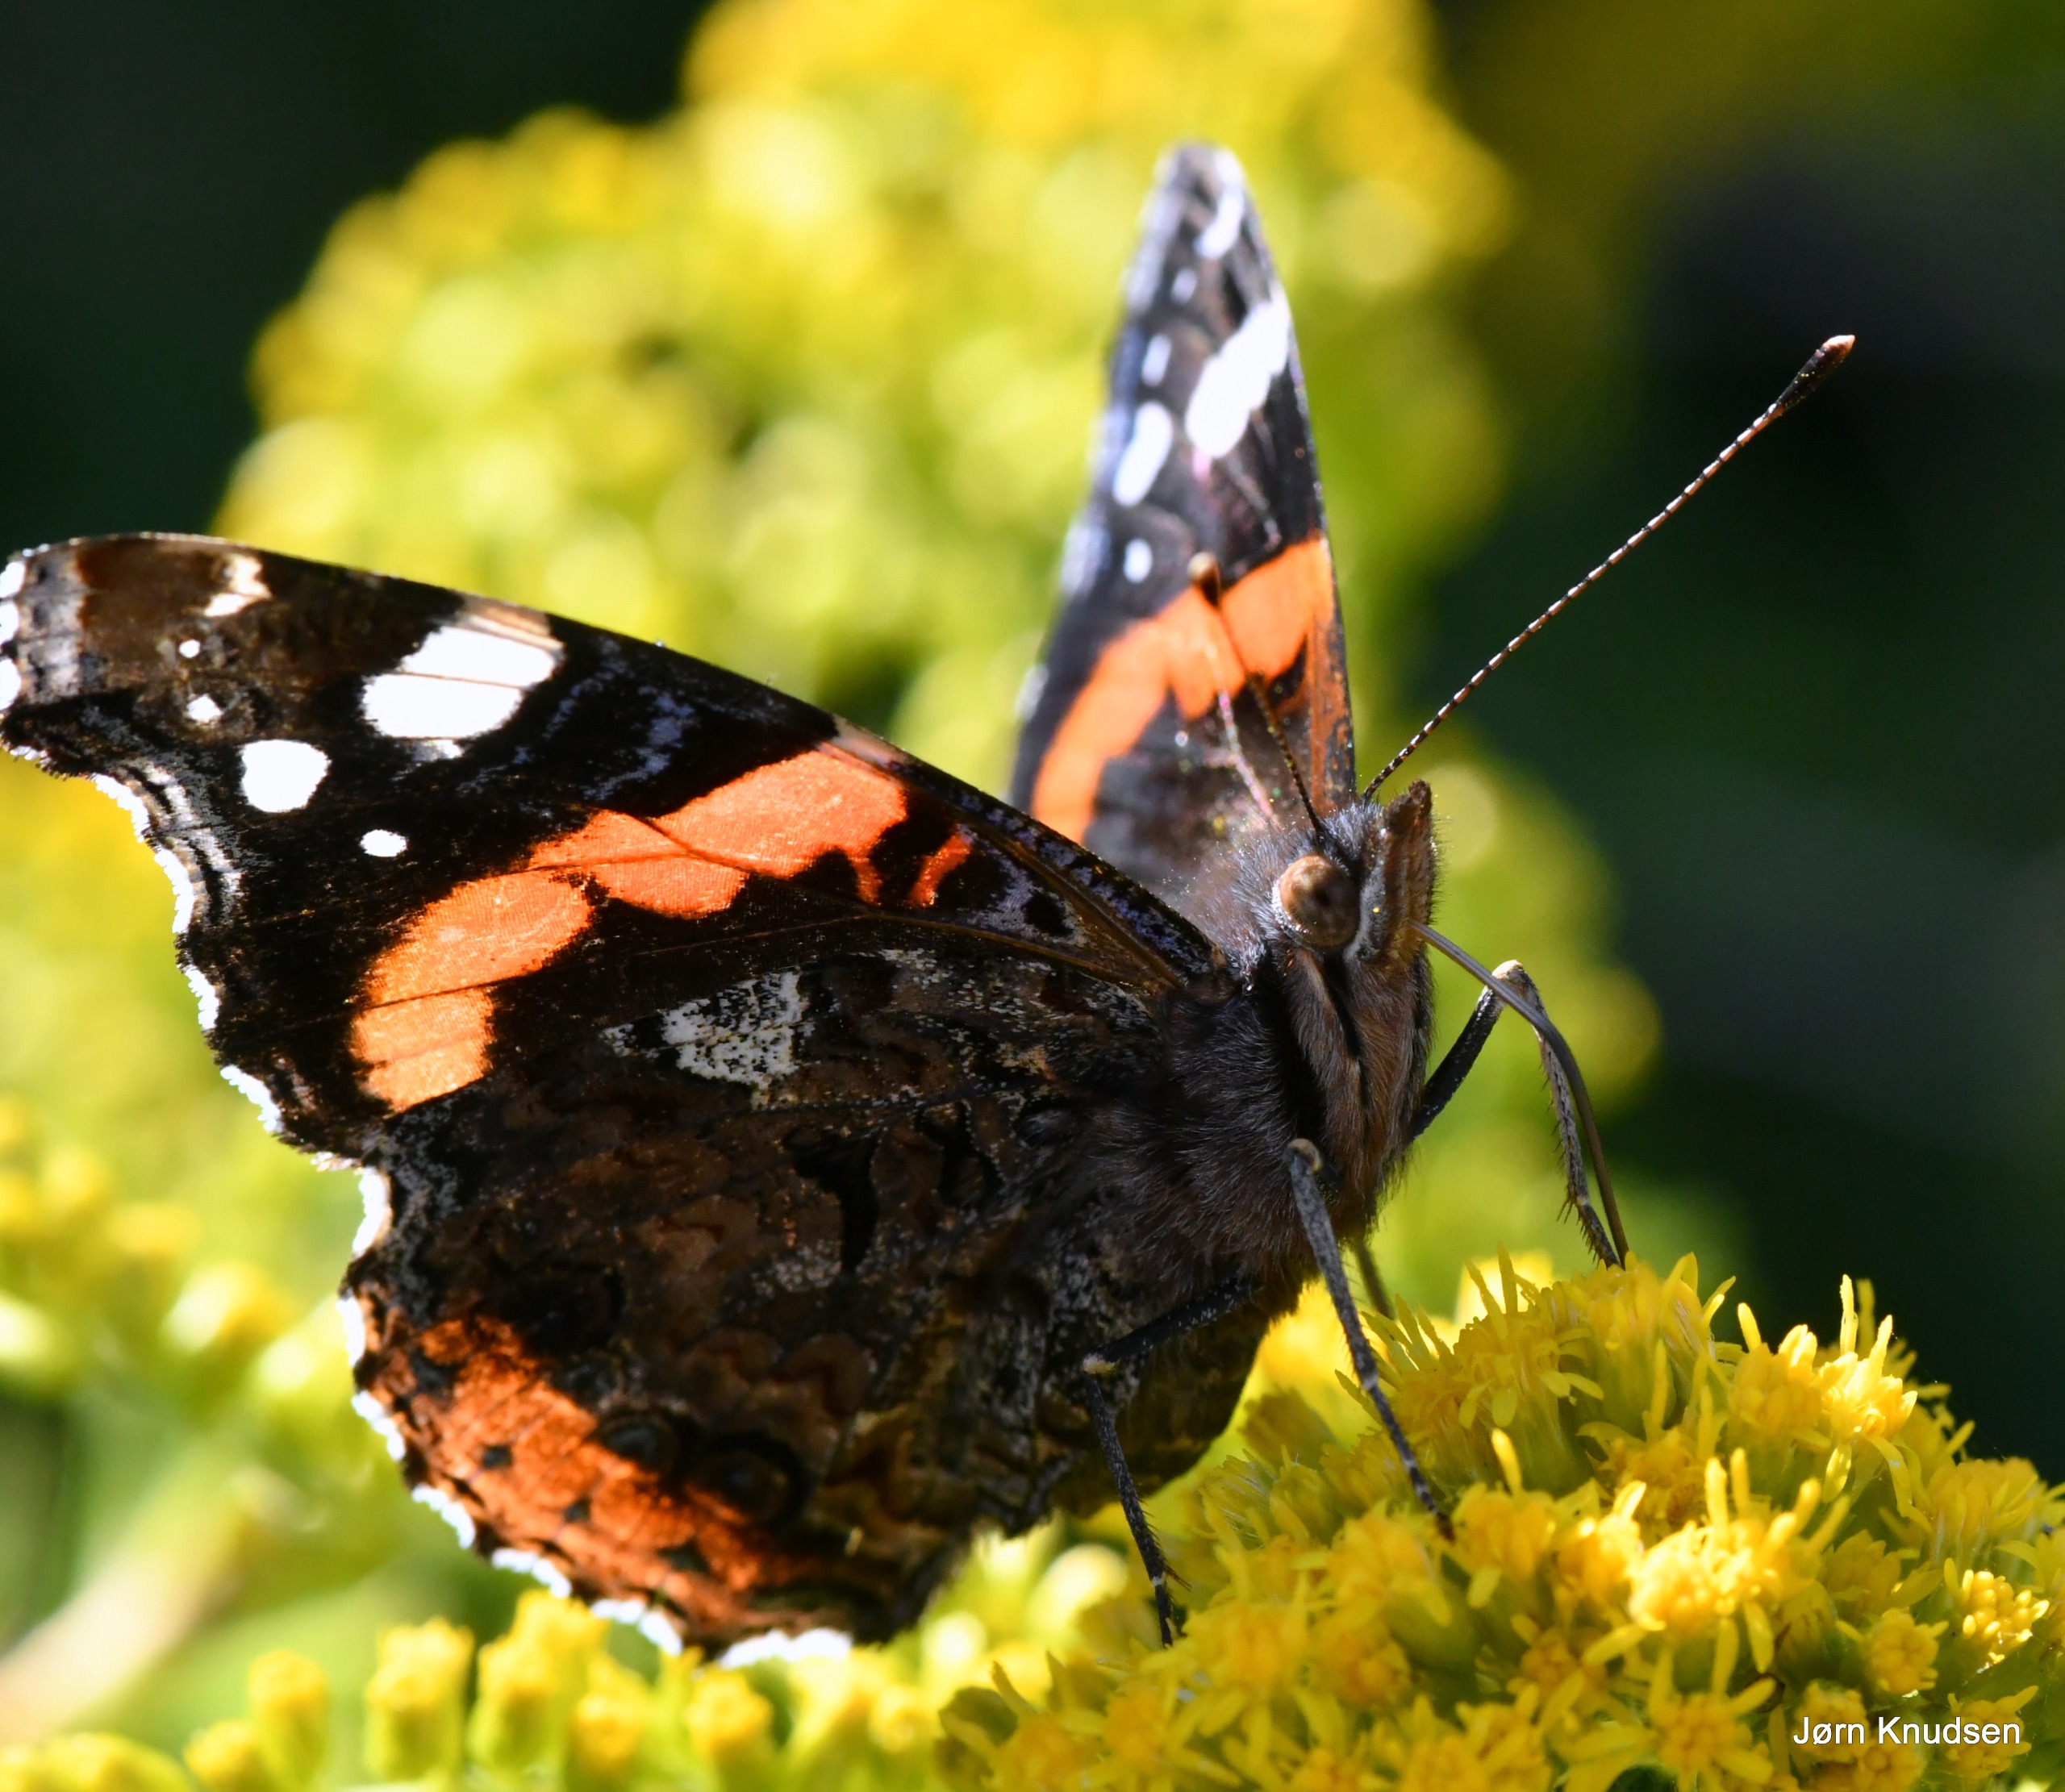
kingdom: Animalia
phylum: Arthropoda
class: Insecta
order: Lepidoptera
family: Nymphalidae
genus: Vanessa
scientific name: Vanessa atalanta
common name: Admiral
